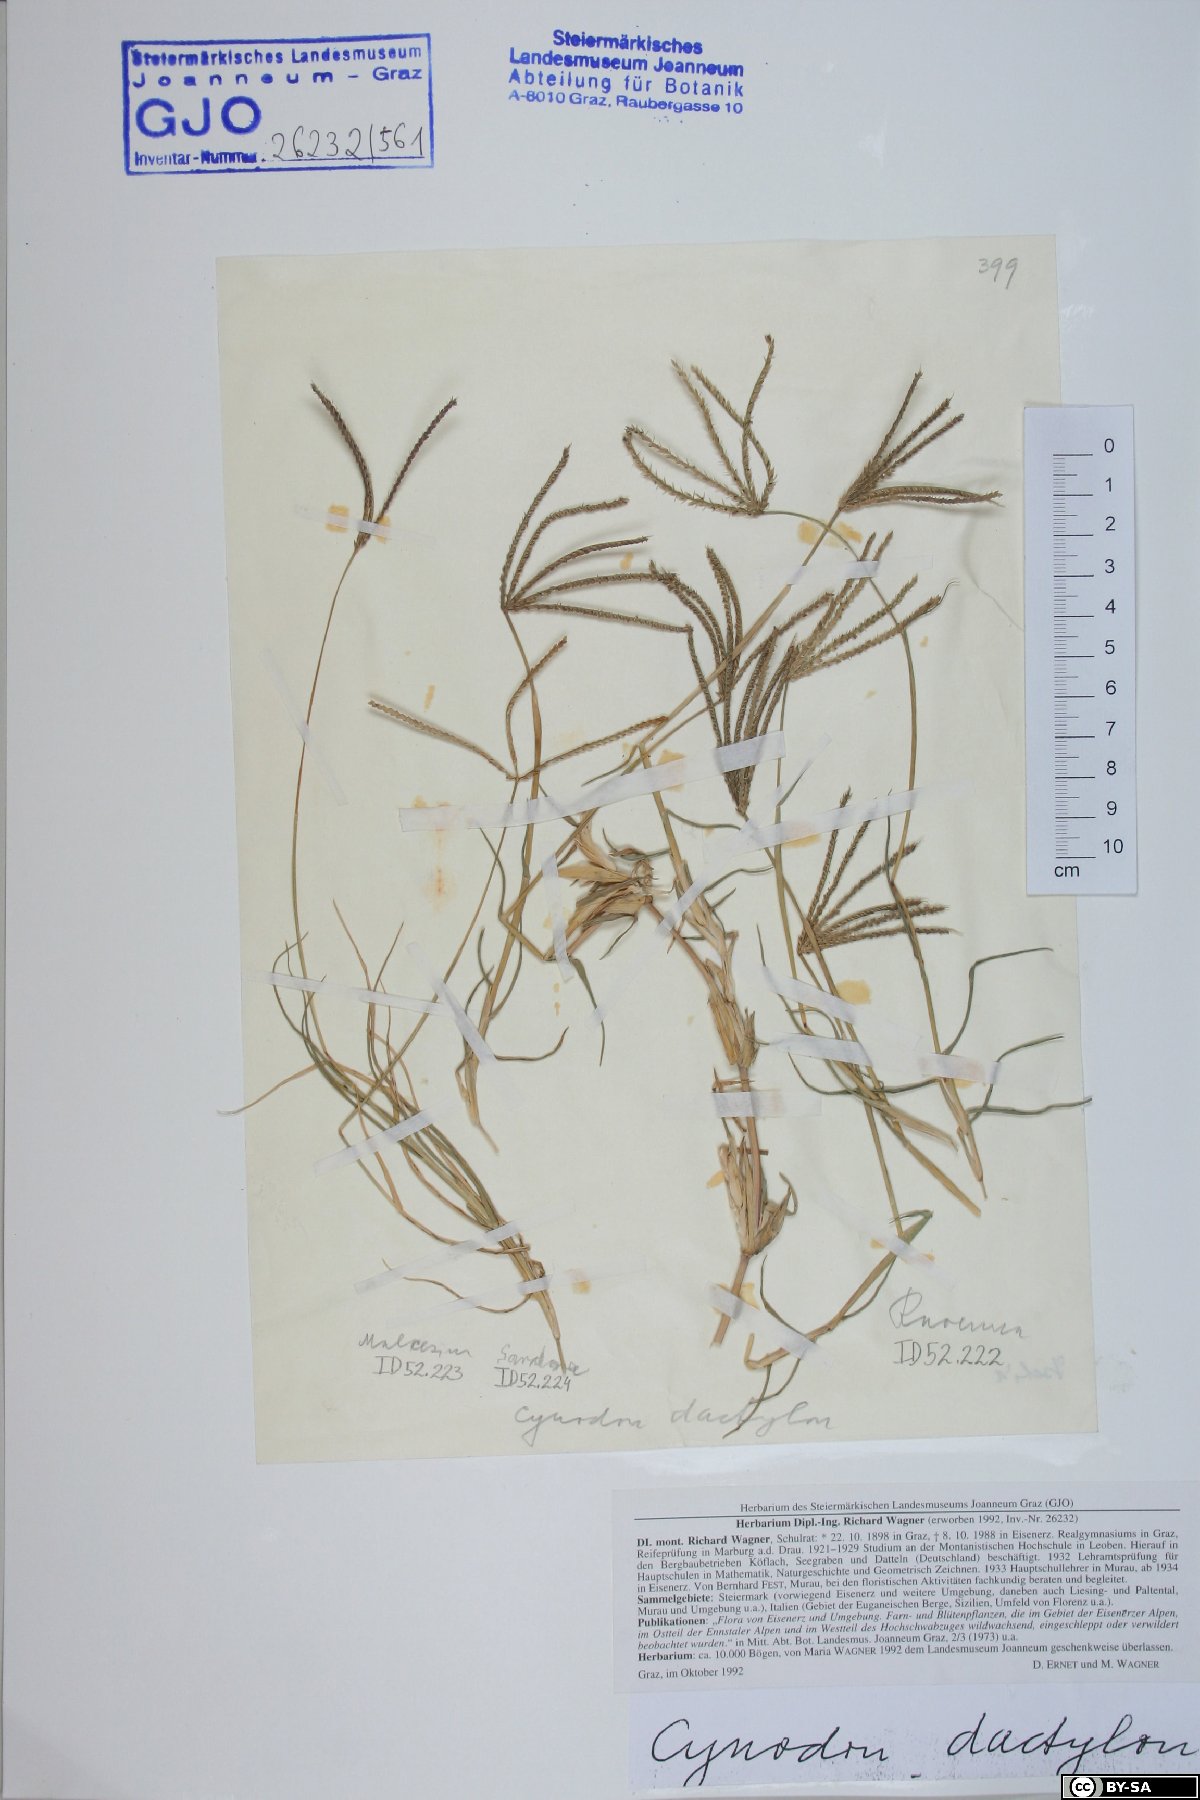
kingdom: Plantae
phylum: Tracheophyta
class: Liliopsida
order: Poales
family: Poaceae
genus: Cynodon
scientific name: Cynodon dactylon
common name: Bermuda grass
